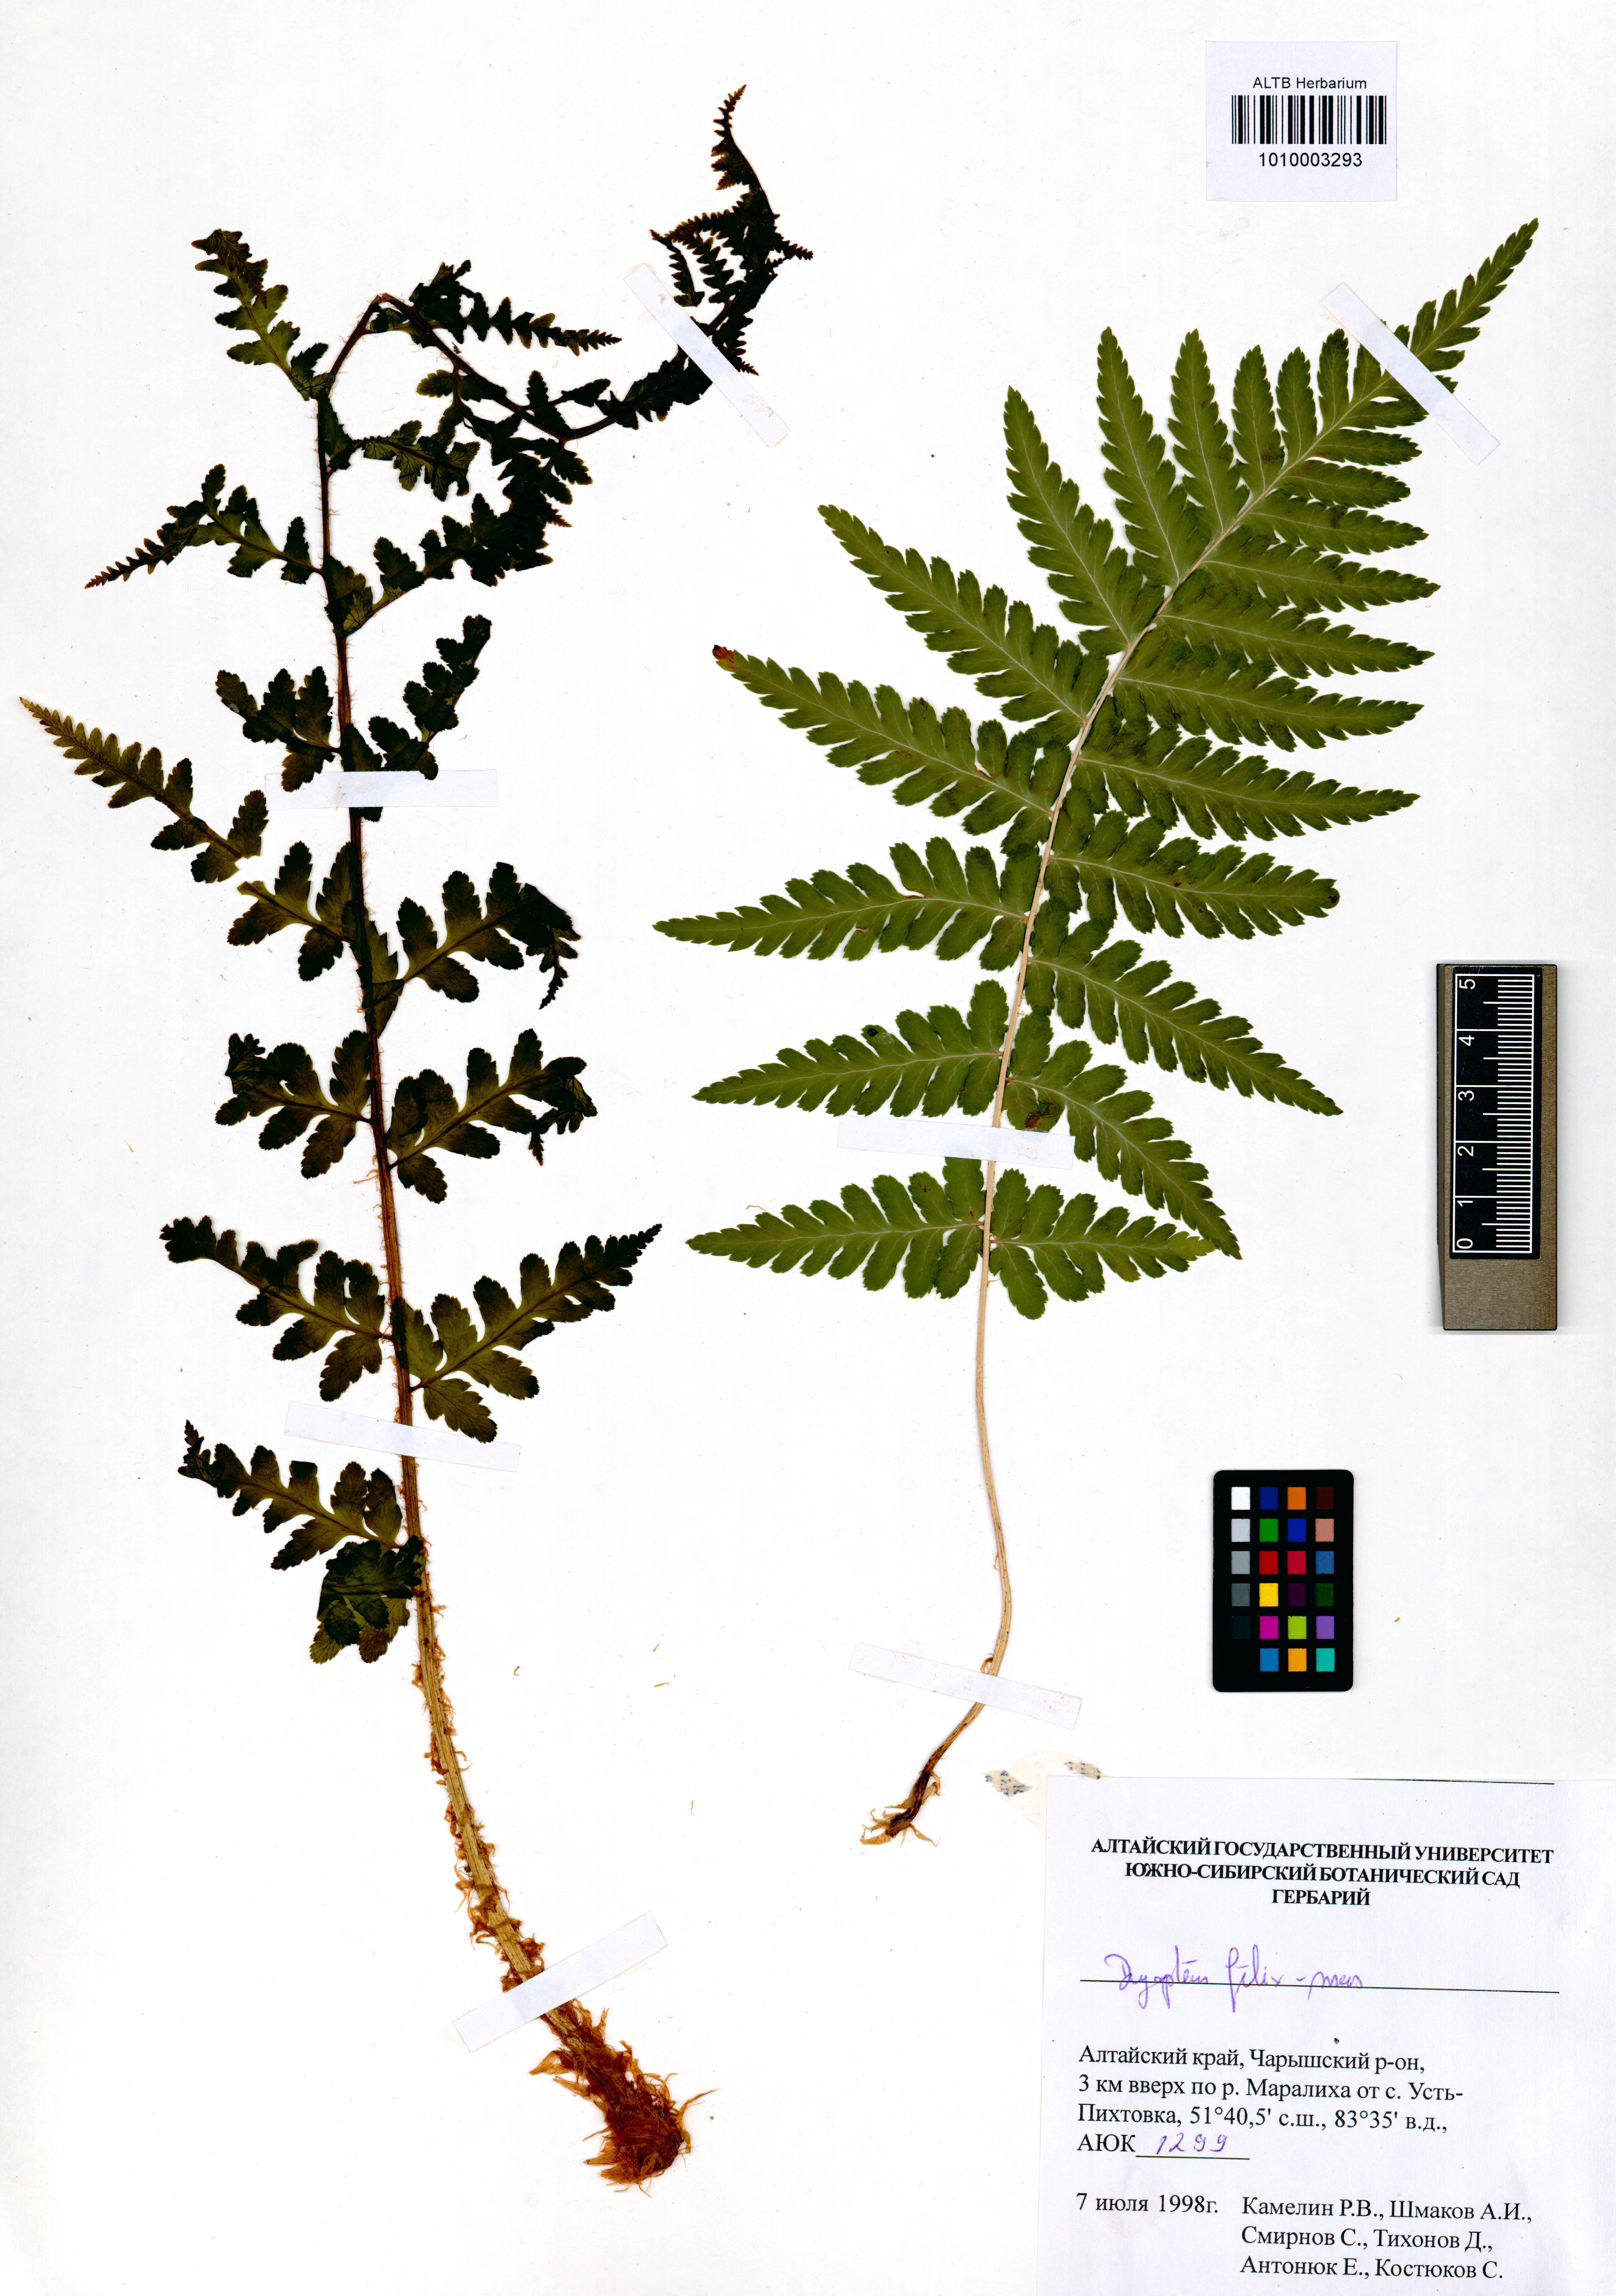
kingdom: Plantae
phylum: Tracheophyta
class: Polypodiopsida
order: Polypodiales
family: Dryopteridaceae
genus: Dryopteris
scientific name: Dryopteris filix-mas
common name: Male fern
